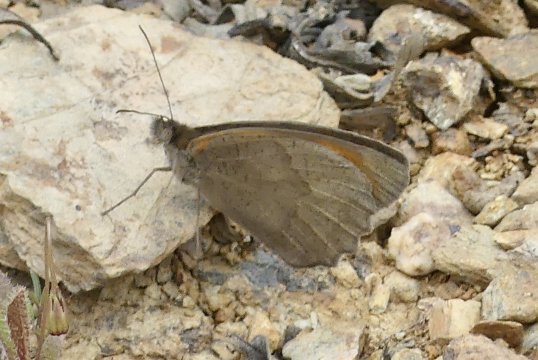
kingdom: Animalia
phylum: Arthropoda
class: Insecta
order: Lepidoptera
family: Nymphalidae
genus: Maniola
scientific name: Maniola jurtina
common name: Meadow Brown
